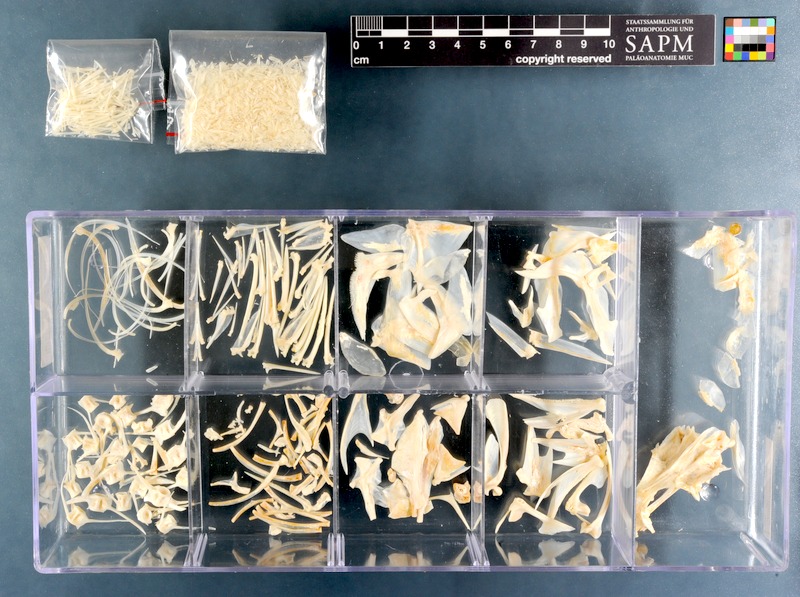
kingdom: Animalia
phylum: Chordata
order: Perciformes
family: Serranidae
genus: Epinephelus
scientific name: Epinephelus rivulatus
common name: Halfmoon grouper
